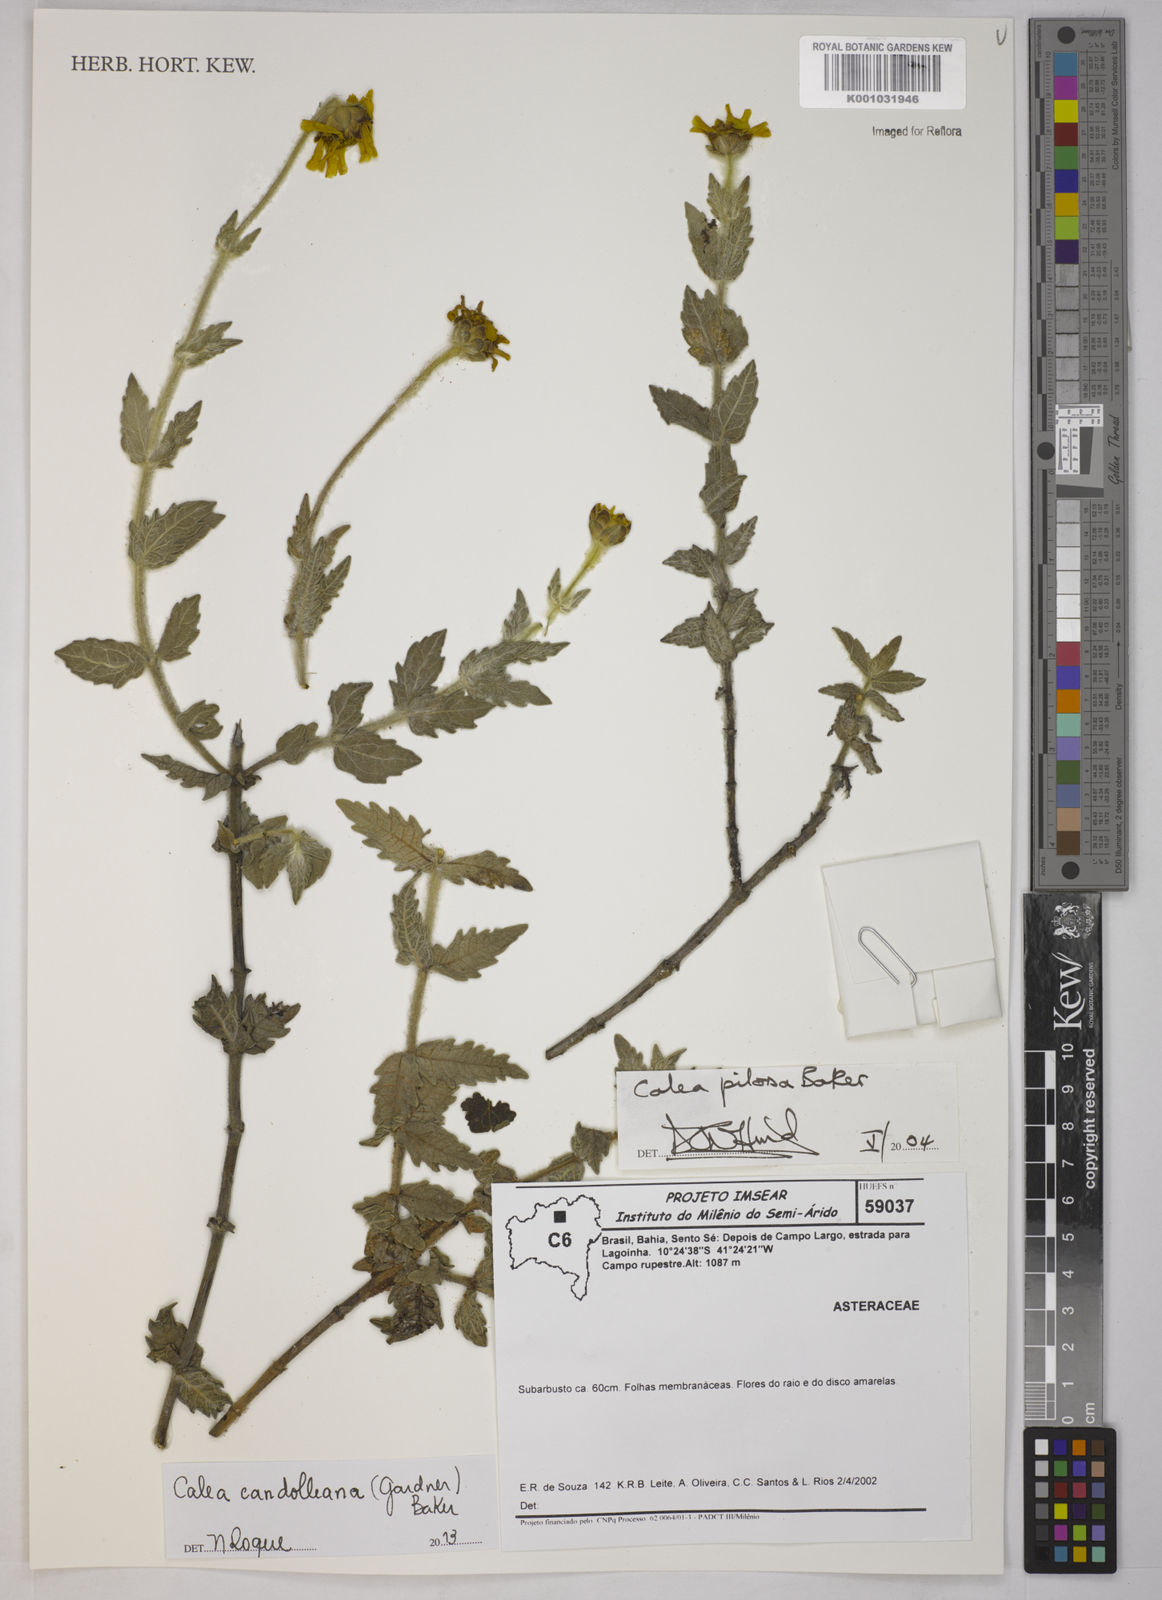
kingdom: Plantae
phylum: Tracheophyta
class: Magnoliopsida
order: Asterales
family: Asteraceae
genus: Calea
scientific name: Calea candolleana
